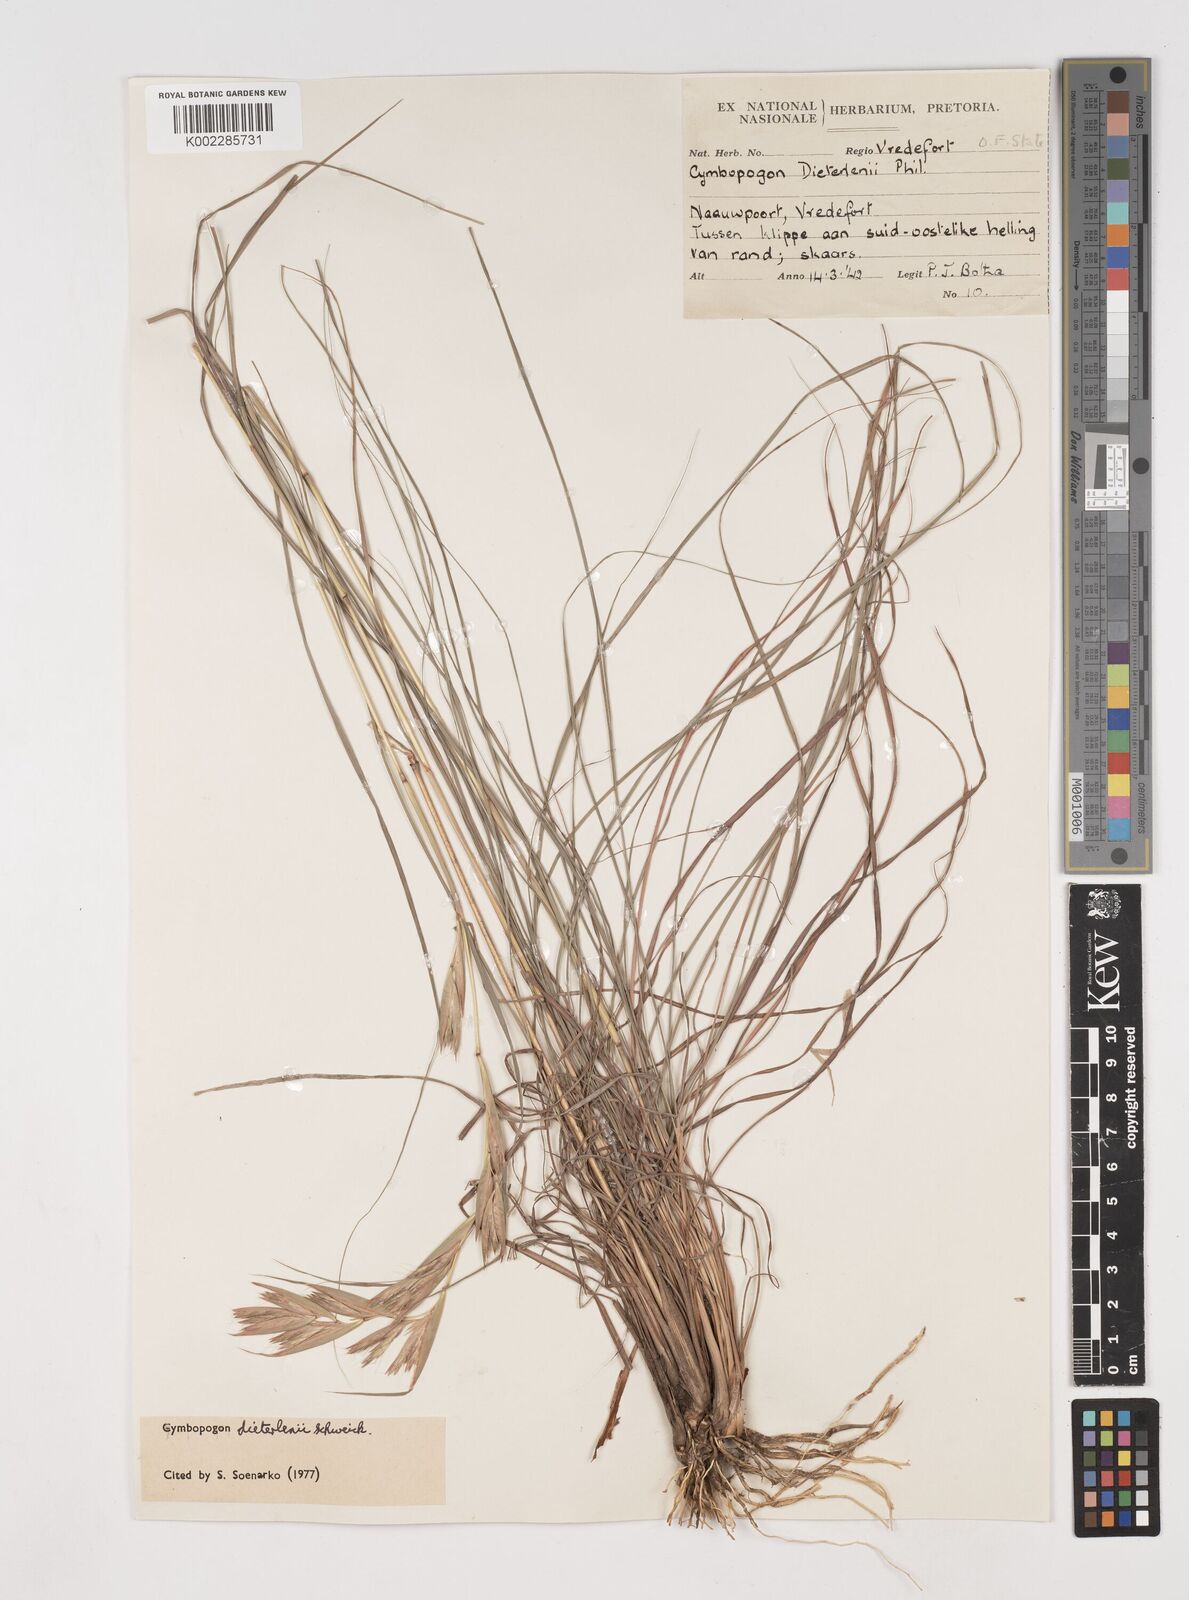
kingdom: Plantae
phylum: Tracheophyta
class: Liliopsida
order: Poales
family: Poaceae
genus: Cymbopogon
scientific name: Cymbopogon dieterlenii
